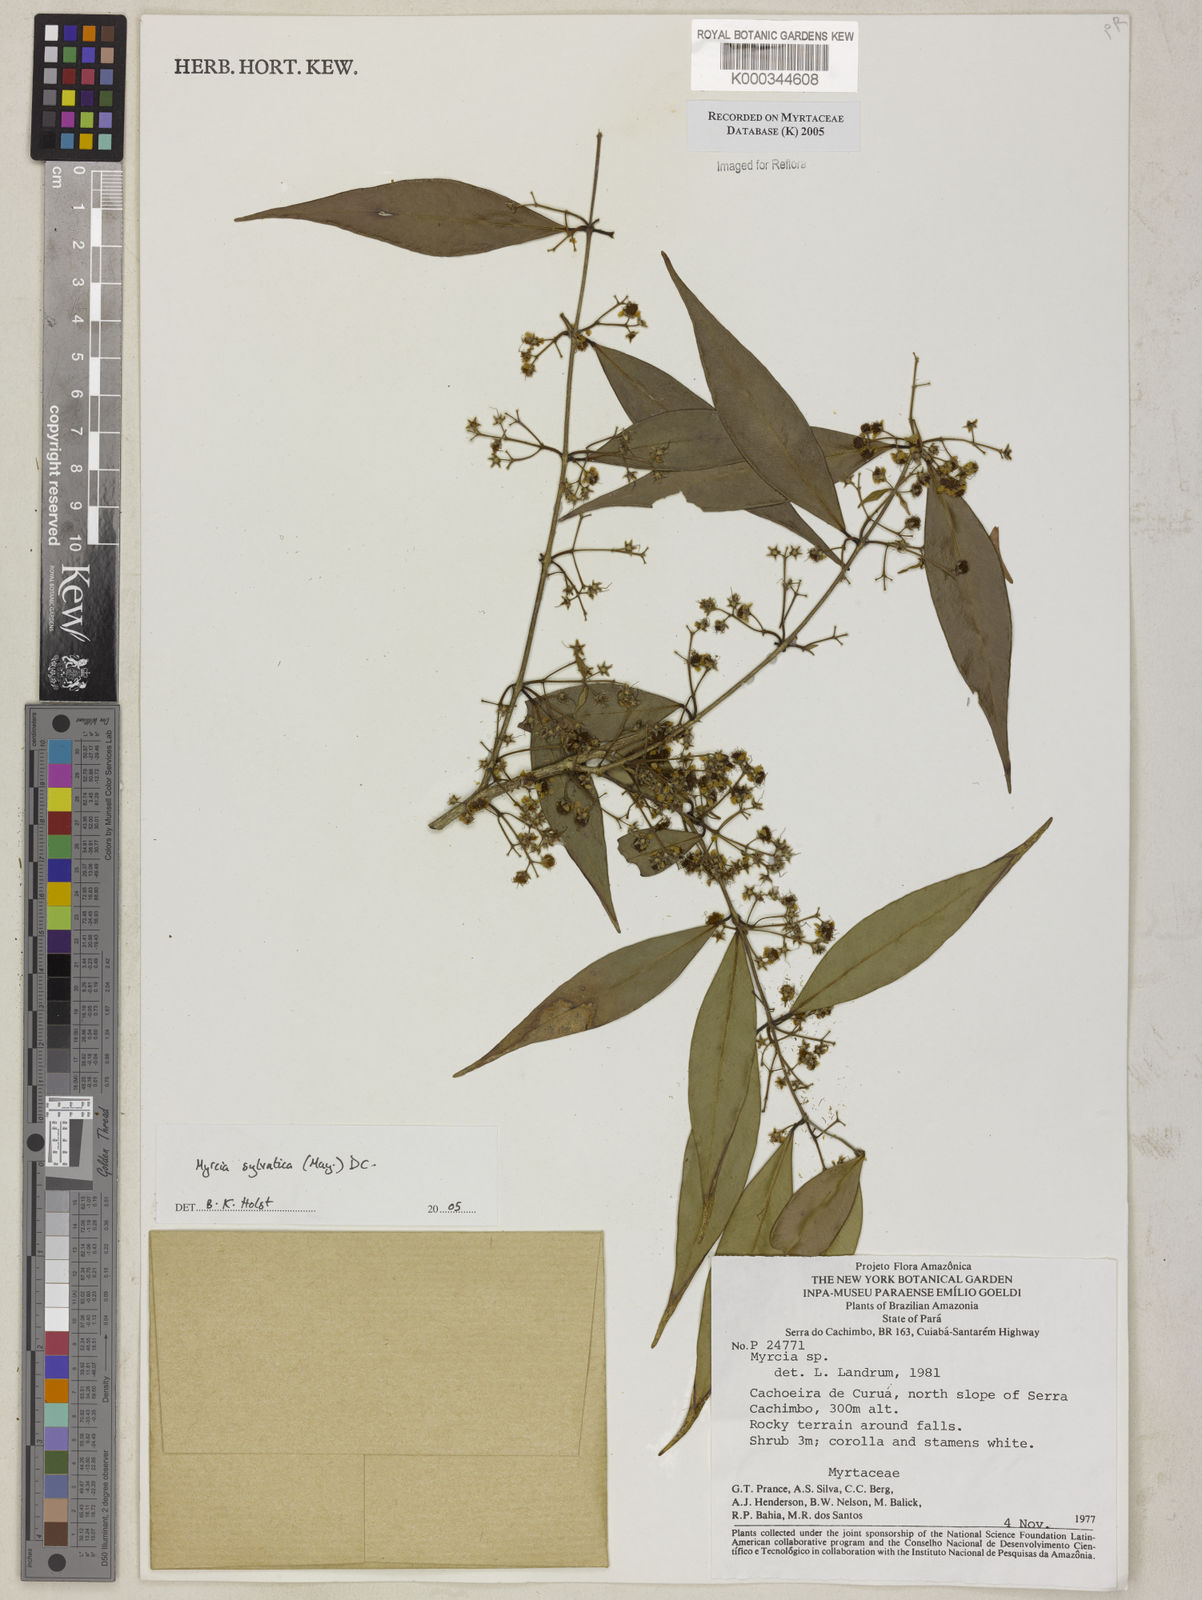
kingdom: Plantae
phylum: Tracheophyta
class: Magnoliopsida
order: Myrtales
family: Myrtaceae
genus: Myrcia
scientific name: Myrcia sylvatica
